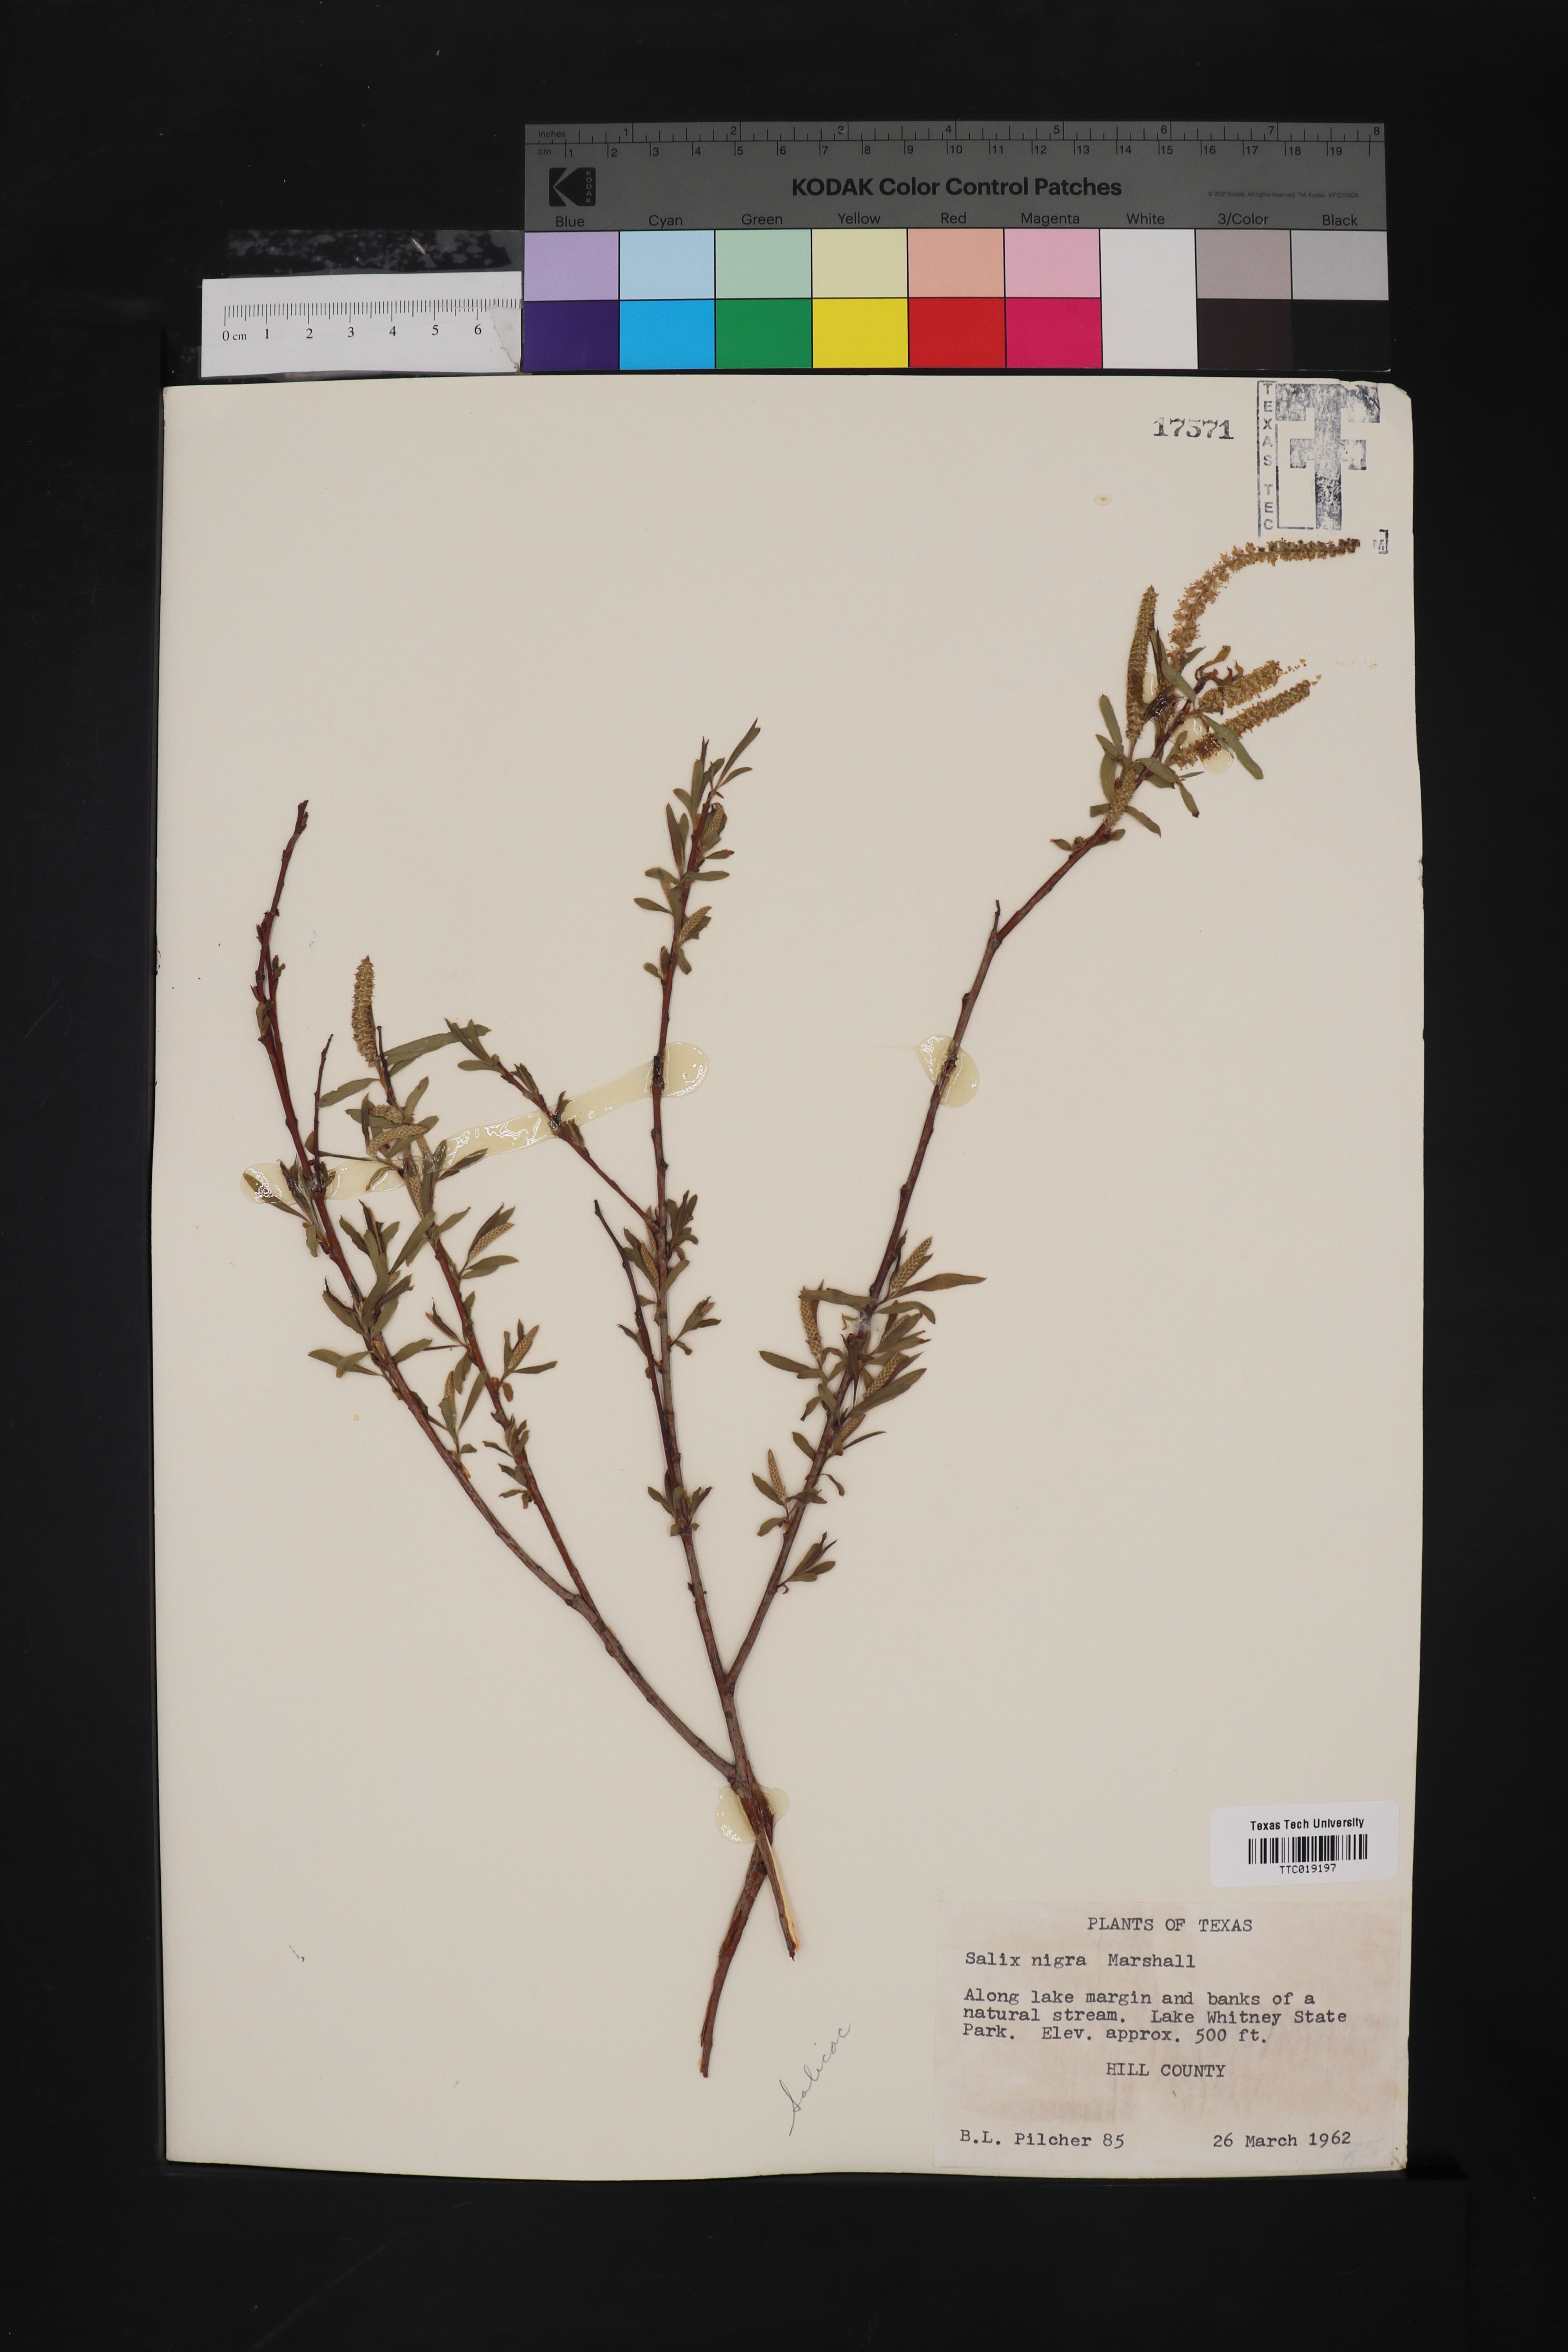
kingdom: Plantae
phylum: Tracheophyta
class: Magnoliopsida
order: Malpighiales
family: Salicaceae
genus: Salix
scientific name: Salix nigra
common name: Black willow
